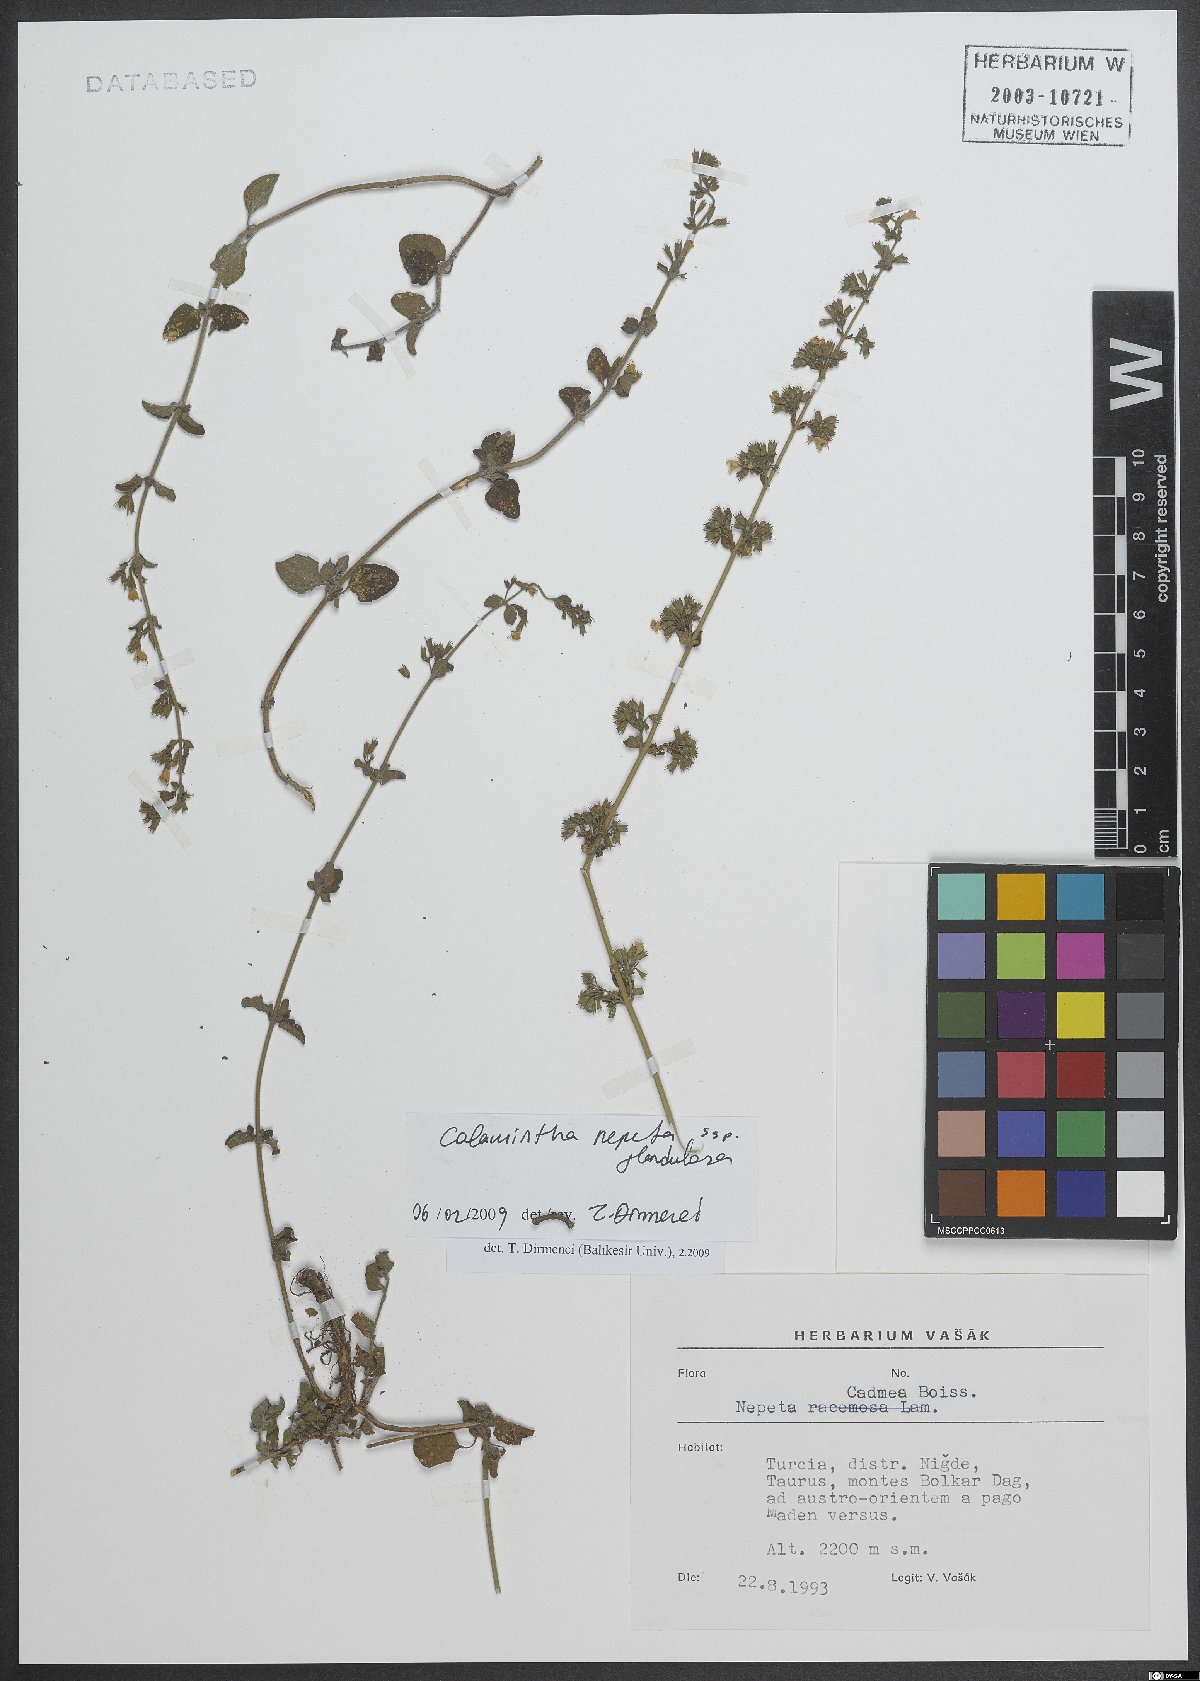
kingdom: Plantae
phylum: Tracheophyta
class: Magnoliopsida
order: Lamiales
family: Lamiaceae
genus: Clinopodium
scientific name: Clinopodium nepeta
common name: Lesser calamint
